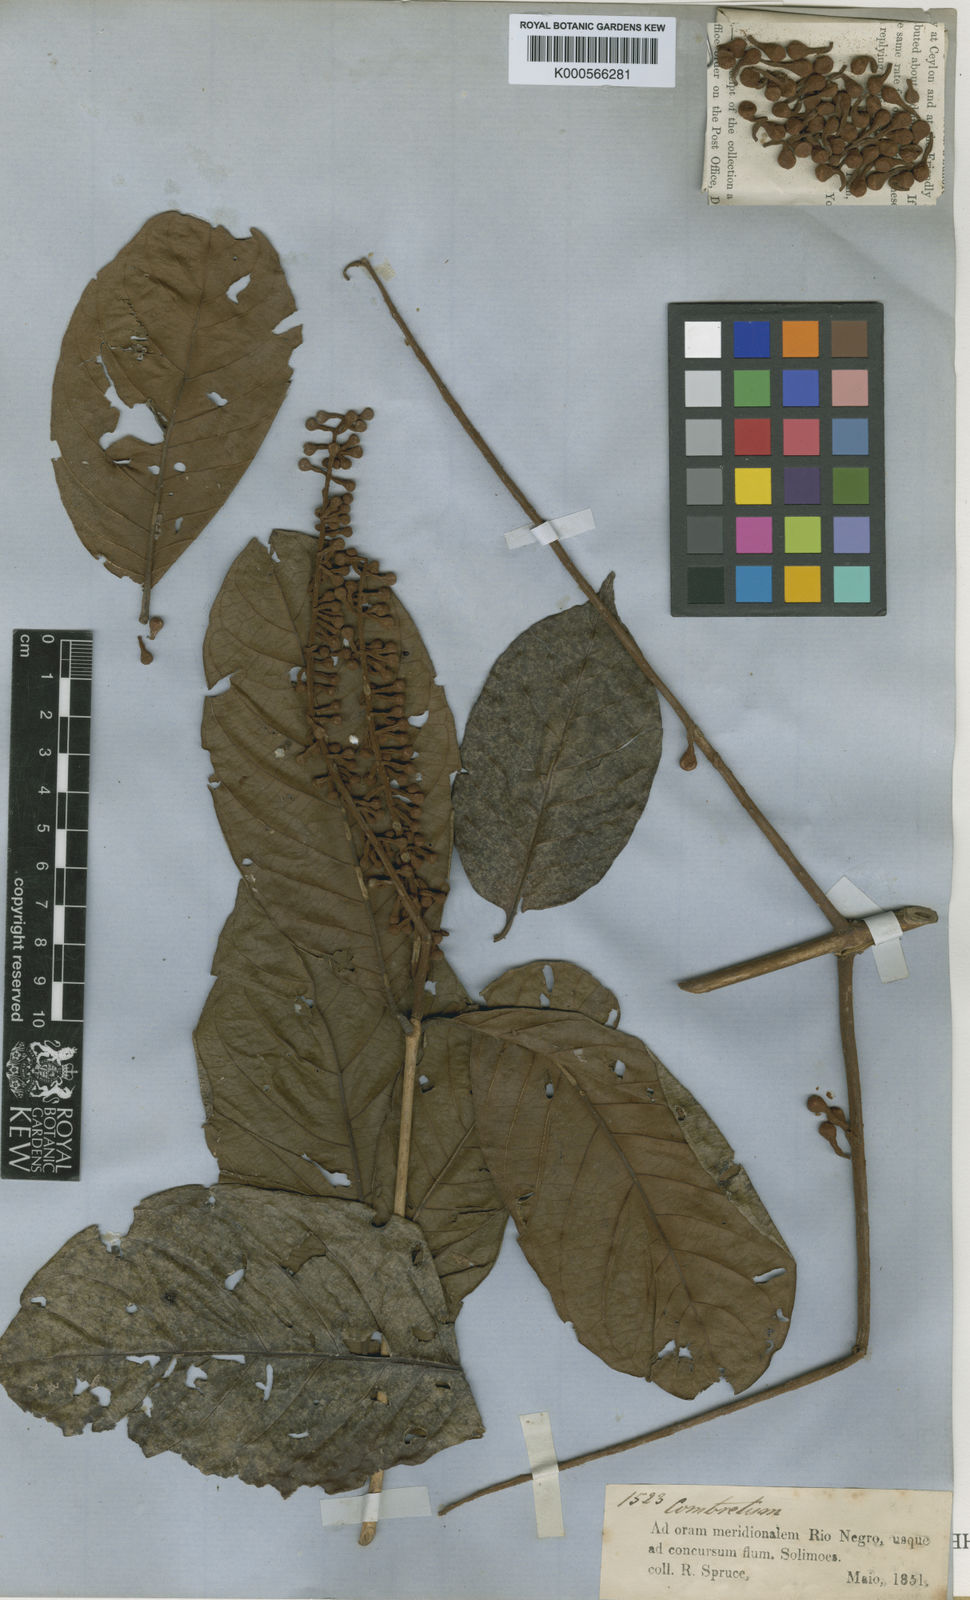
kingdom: Plantae
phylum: Tracheophyta
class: Magnoliopsida
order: Myrtales
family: Combretaceae
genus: Combretum
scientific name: Combretum assimile
